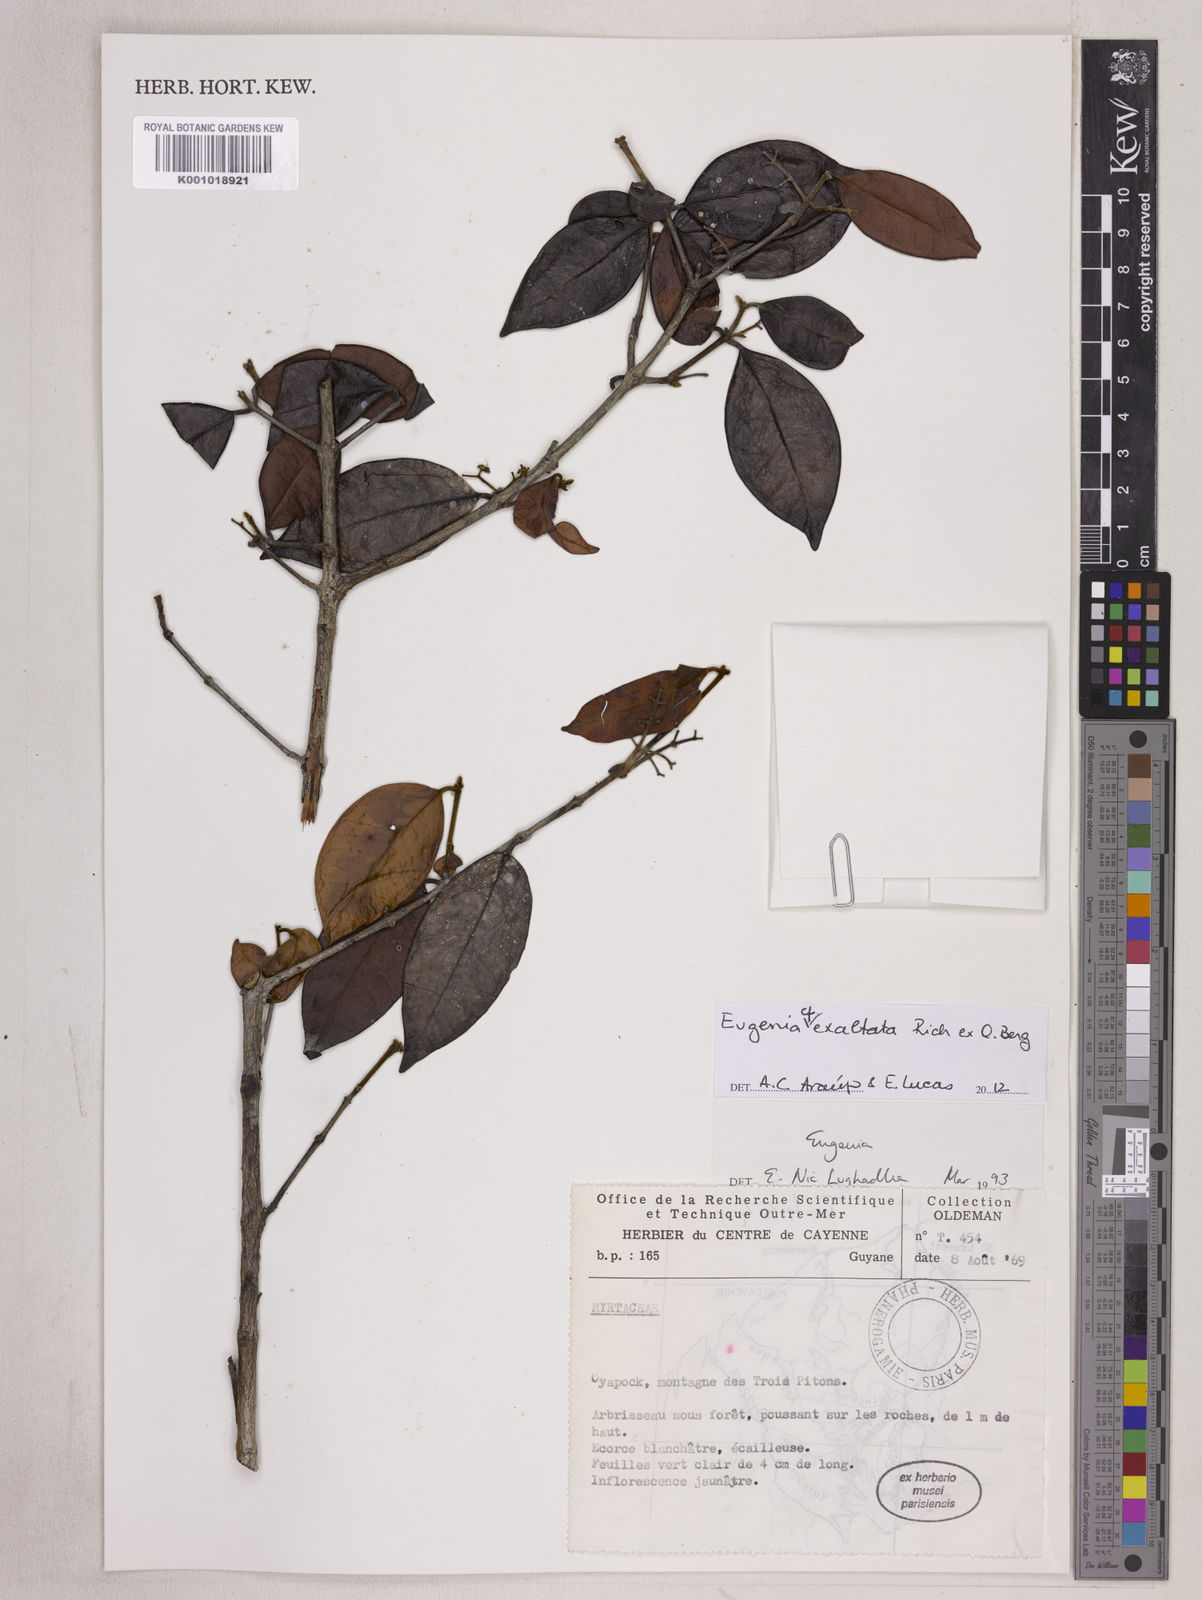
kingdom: Plantae
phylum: Tracheophyta
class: Magnoliopsida
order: Myrtales
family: Myrtaceae
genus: Eugenia
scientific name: Eugenia exaltata
